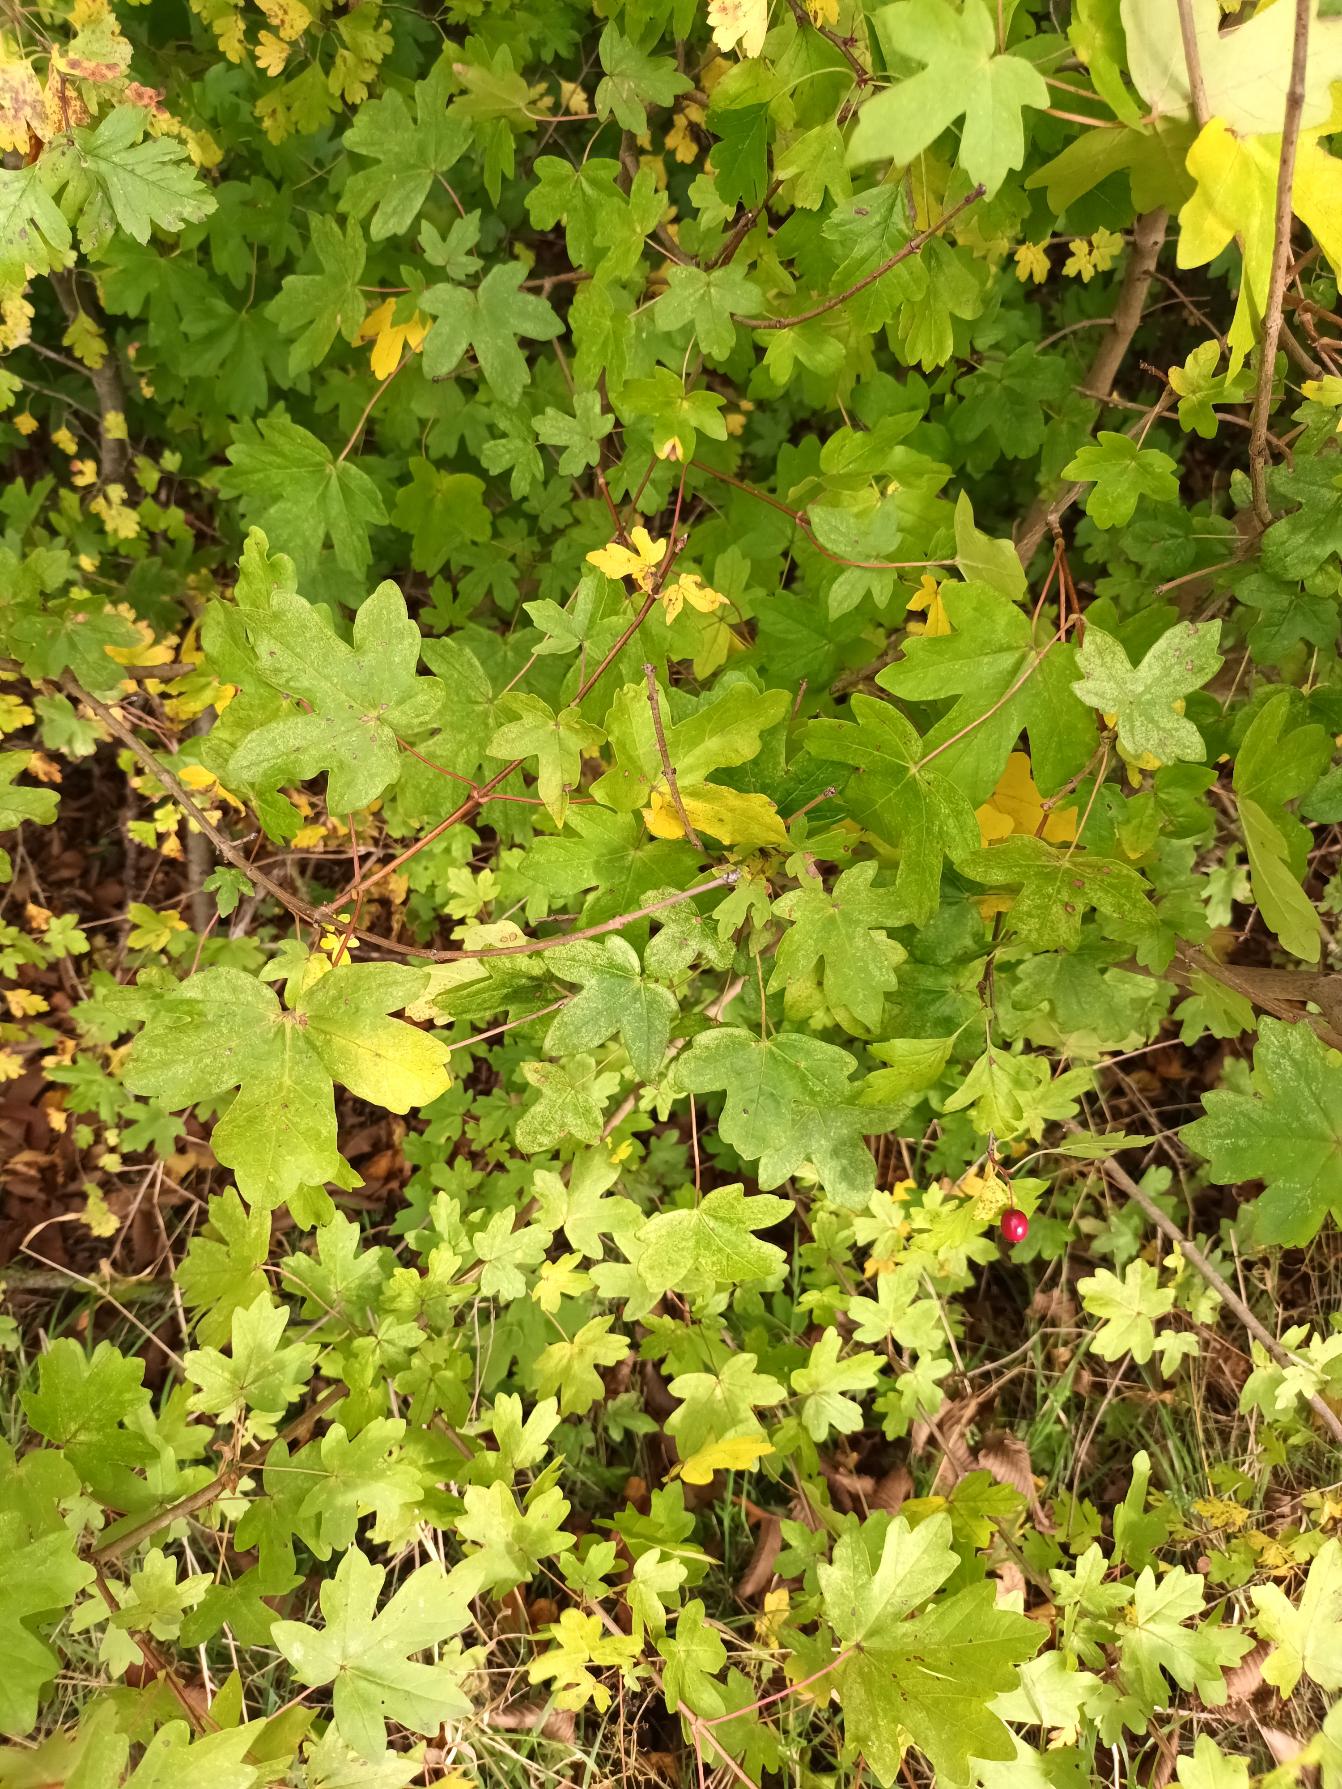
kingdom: Plantae
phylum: Tracheophyta
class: Magnoliopsida
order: Sapindales
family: Sapindaceae
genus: Acer
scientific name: Acer campestre
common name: Navr
